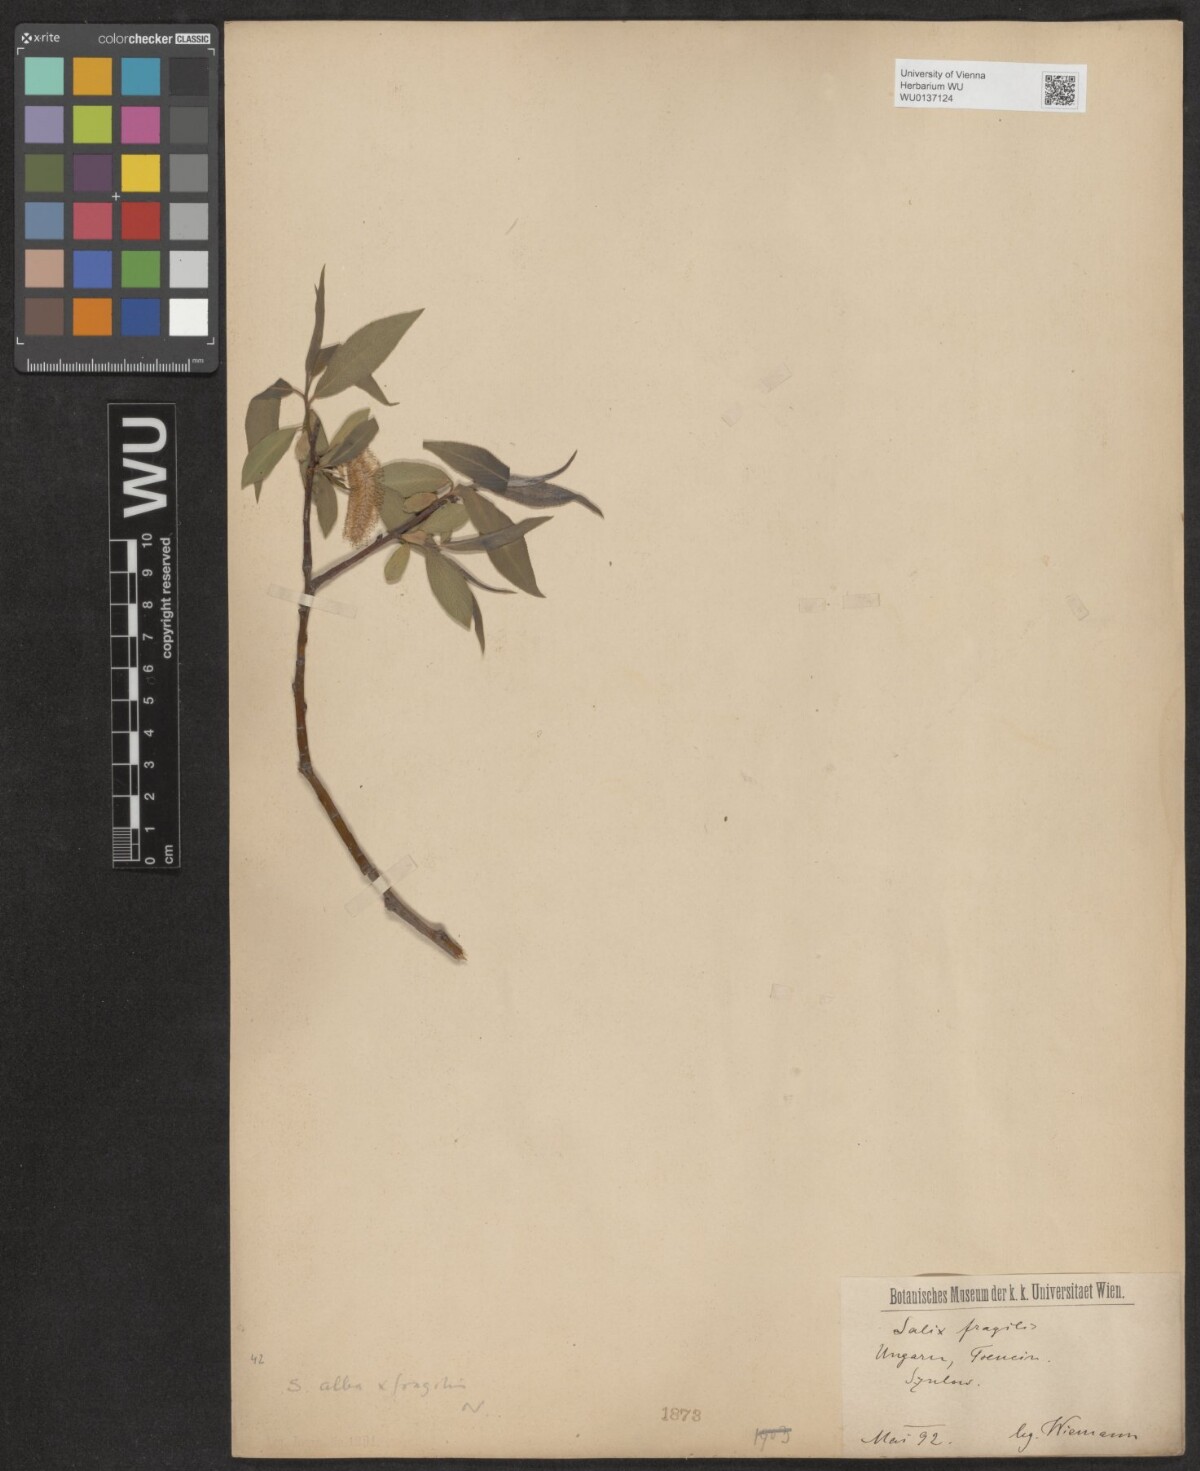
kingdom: Plantae
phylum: Tracheophyta
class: Magnoliopsida
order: Malpighiales
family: Salicaceae
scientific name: Salicaceae
